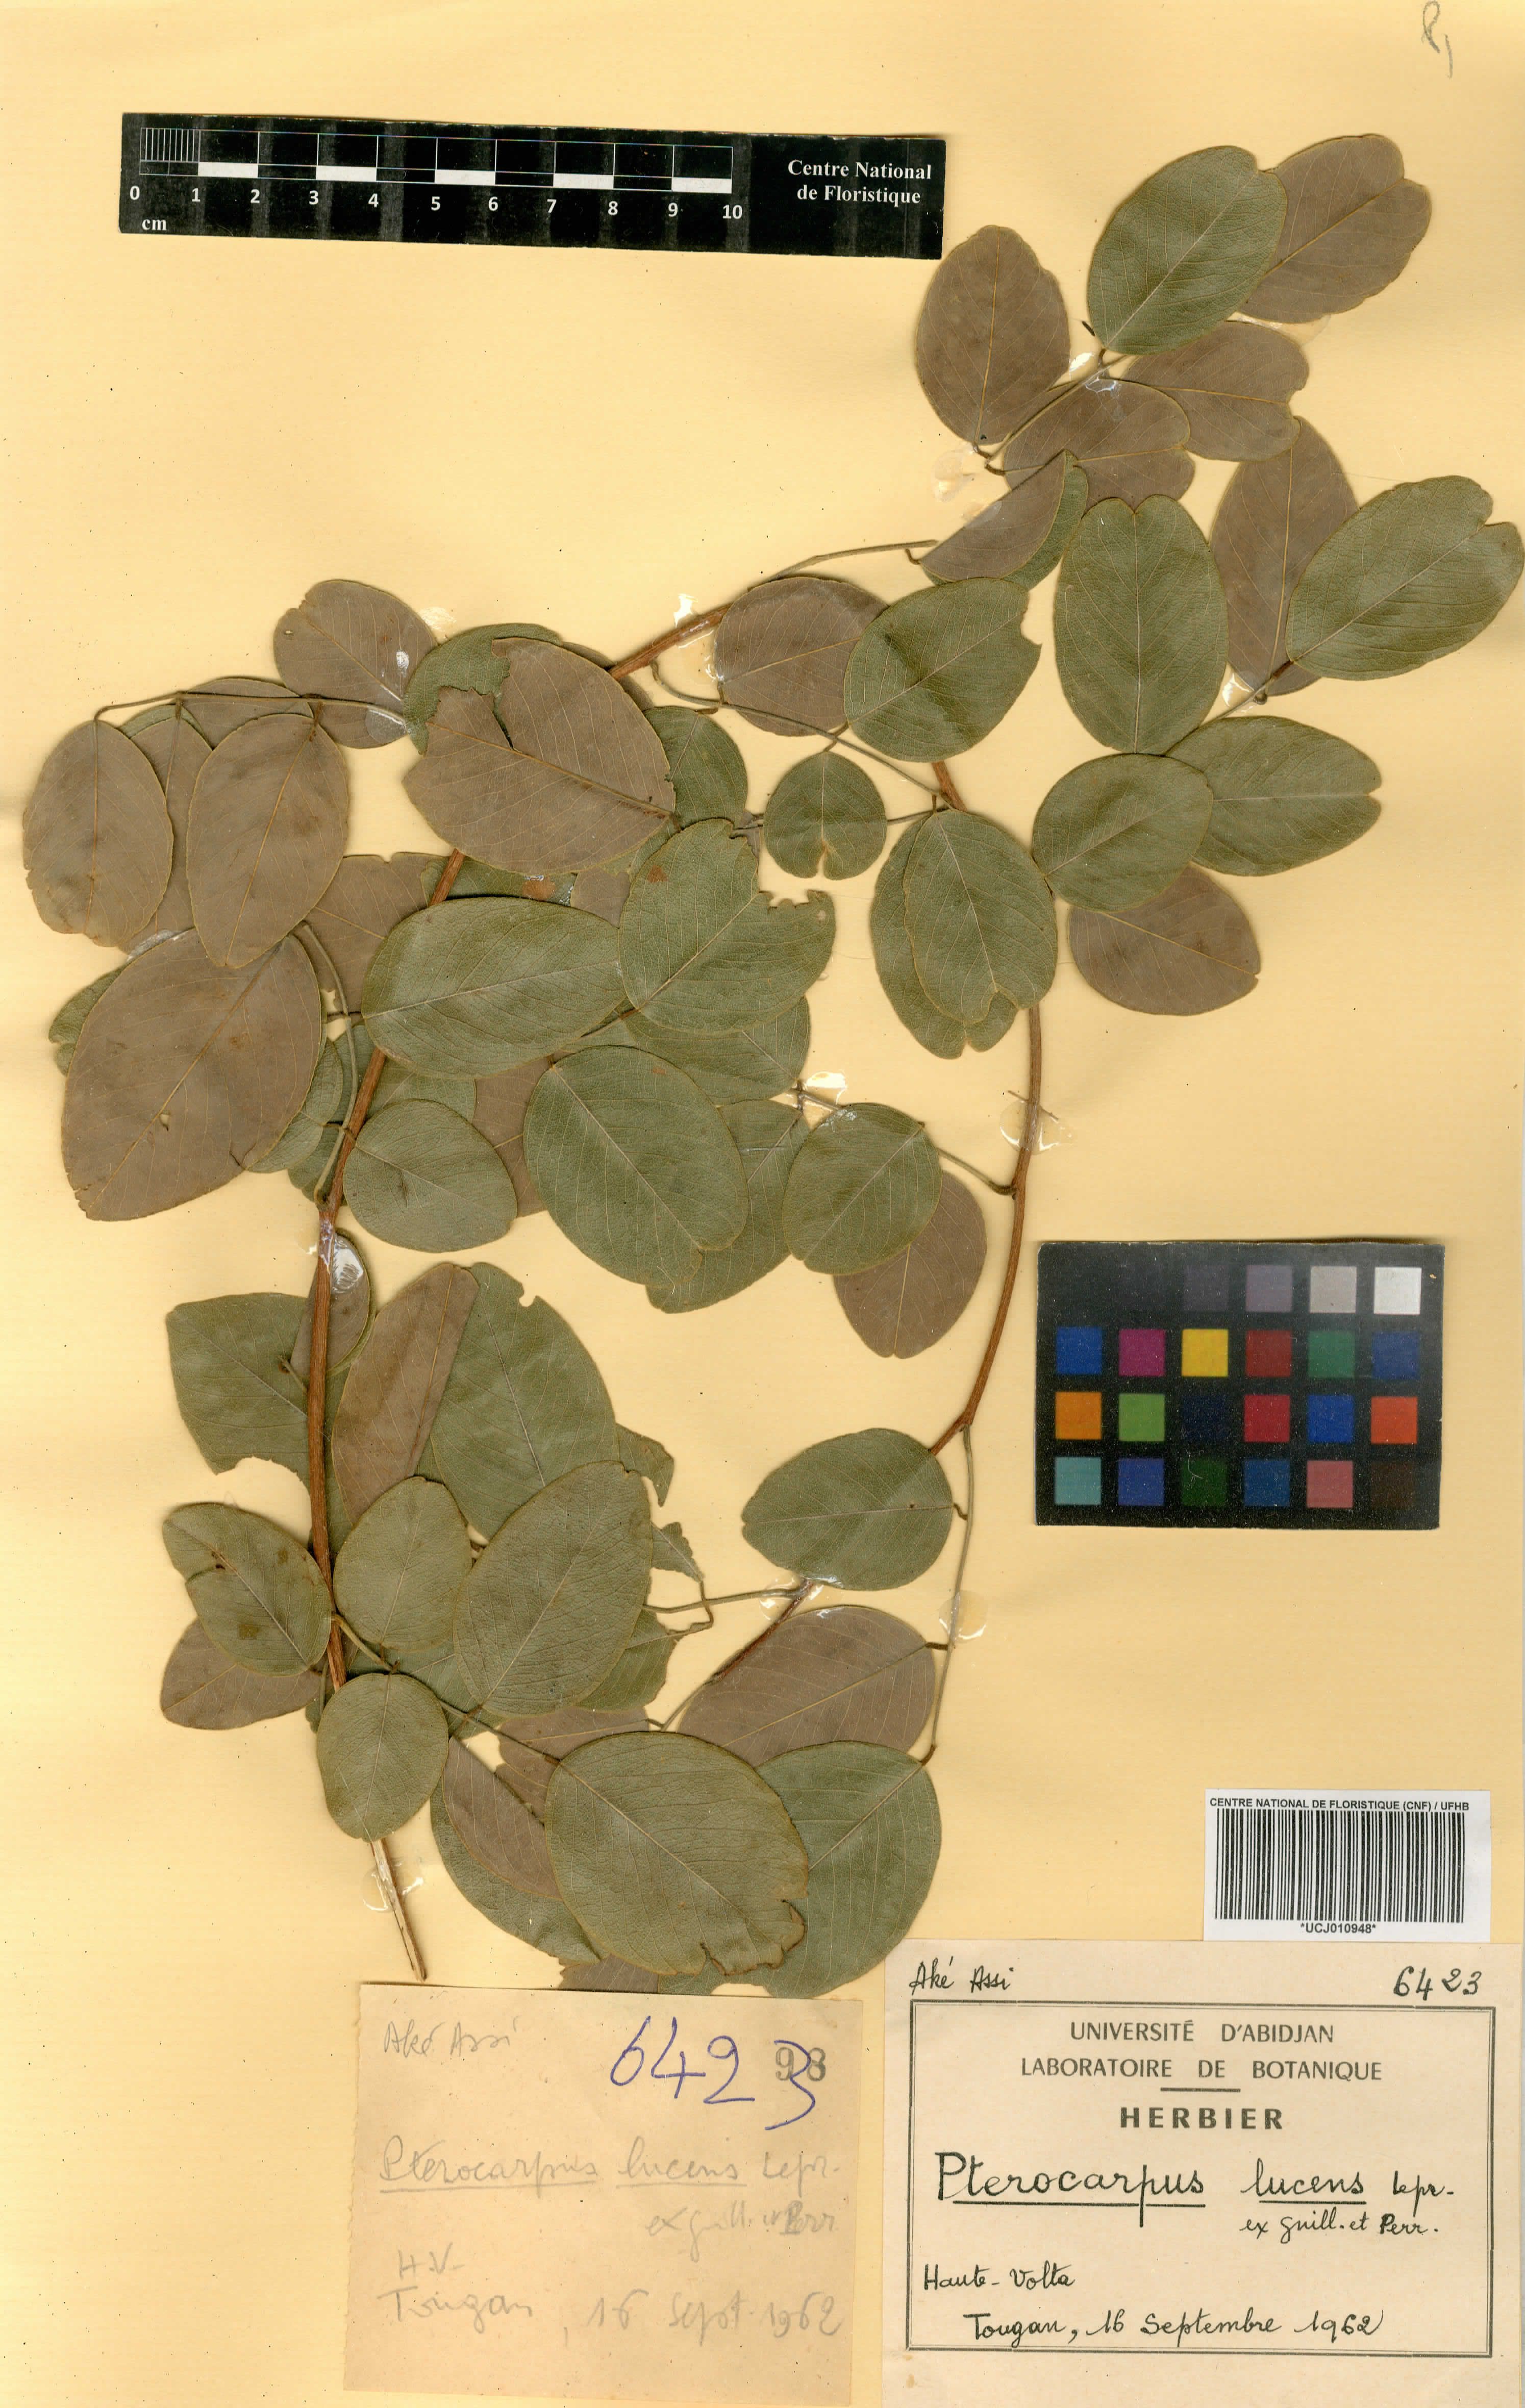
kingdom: Plantae
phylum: Tracheophyta
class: Magnoliopsida
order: Fabales
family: Fabaceae
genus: Pterocarpus
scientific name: Pterocarpus lucens
